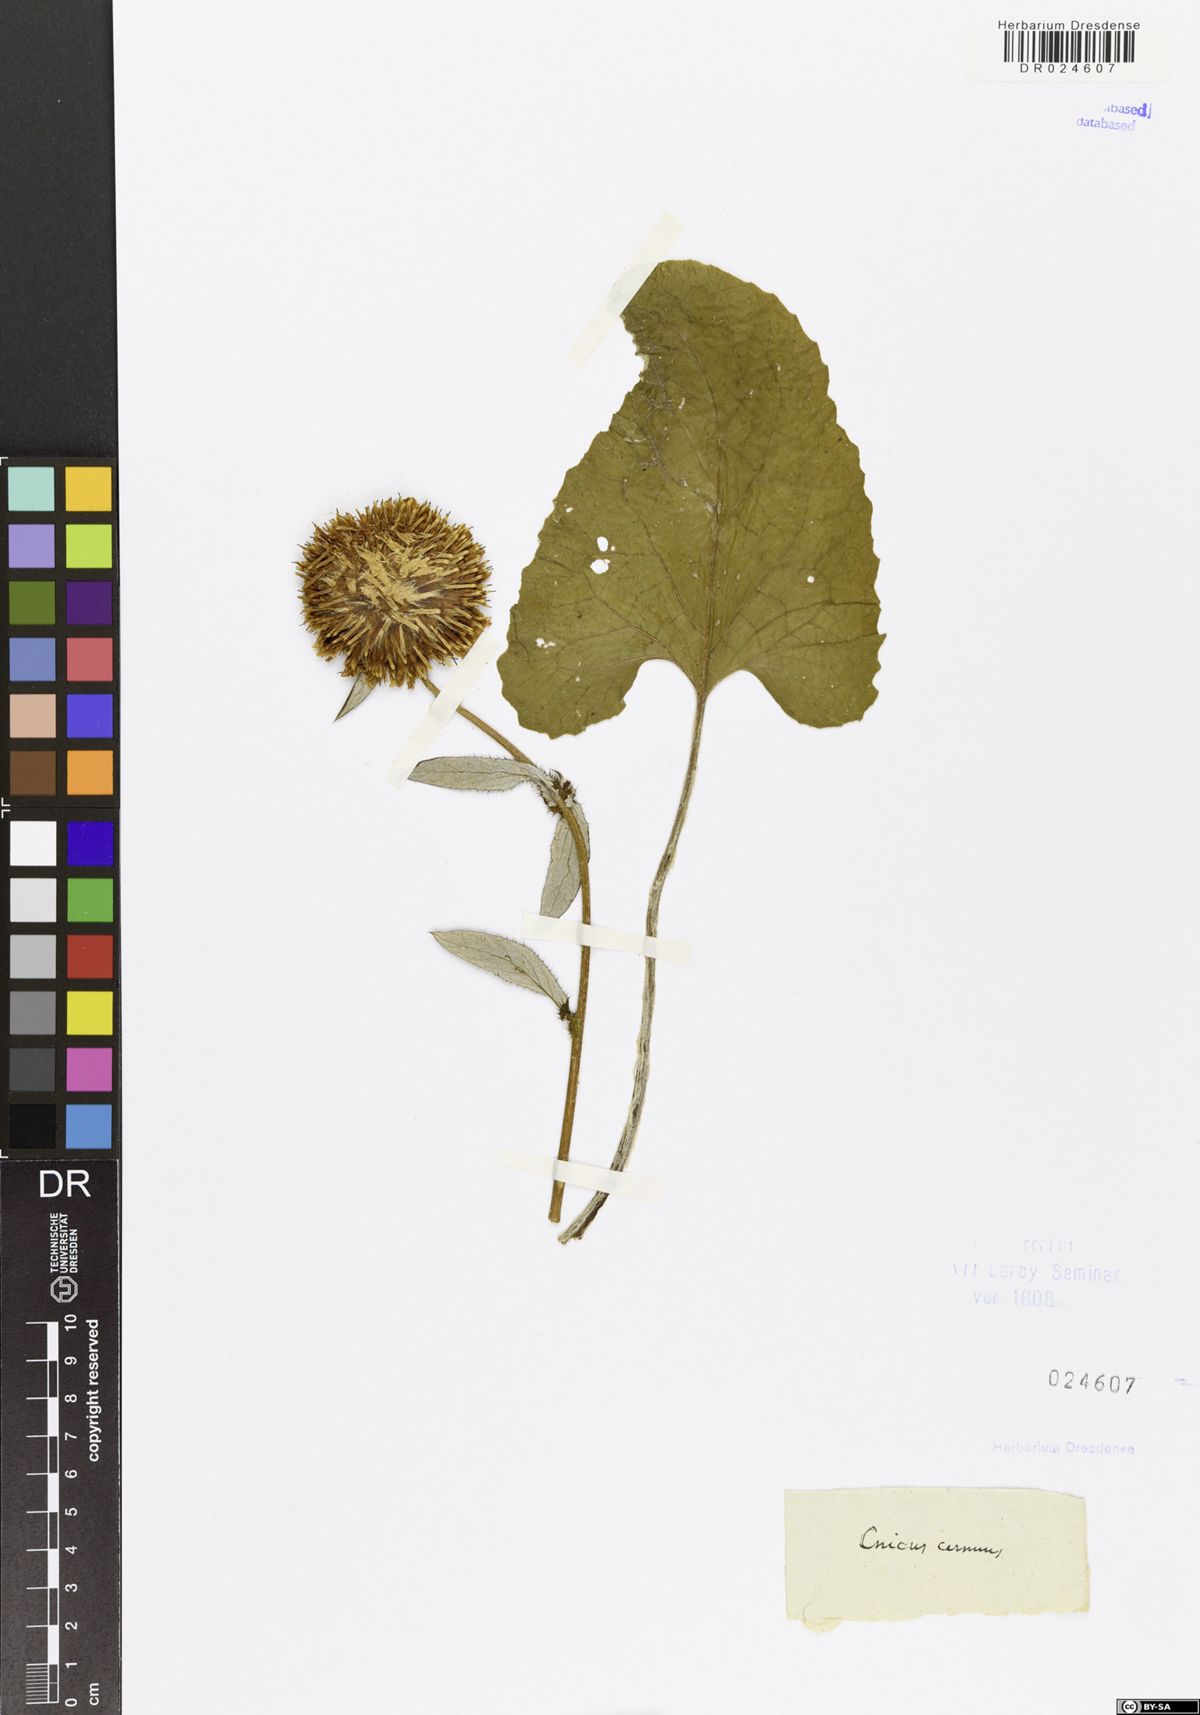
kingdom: Plantae
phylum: Tracheophyta
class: Magnoliopsida
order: Asterales
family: Asteraceae
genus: Alfredia
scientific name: Alfredia cernua
